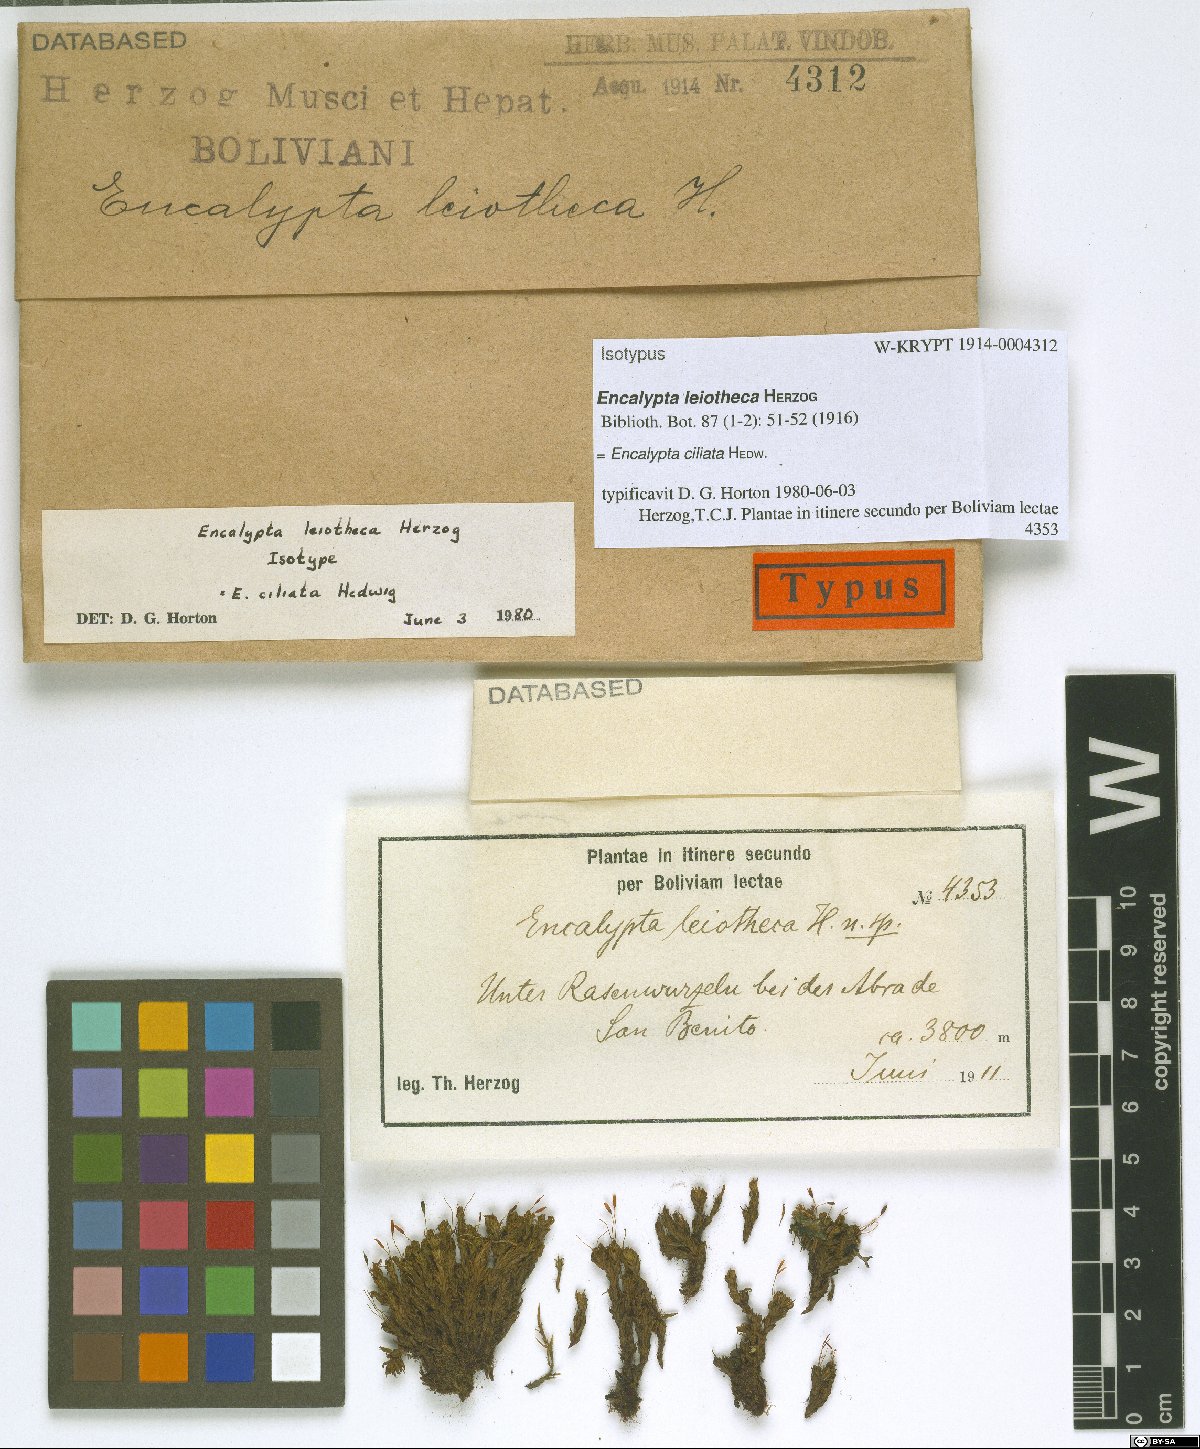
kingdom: Plantae
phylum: Bryophyta
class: Bryopsida
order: Encalyptales
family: Encalyptaceae
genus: Encalypta
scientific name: Encalypta ciliata
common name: Fringed extinguisher-moss
